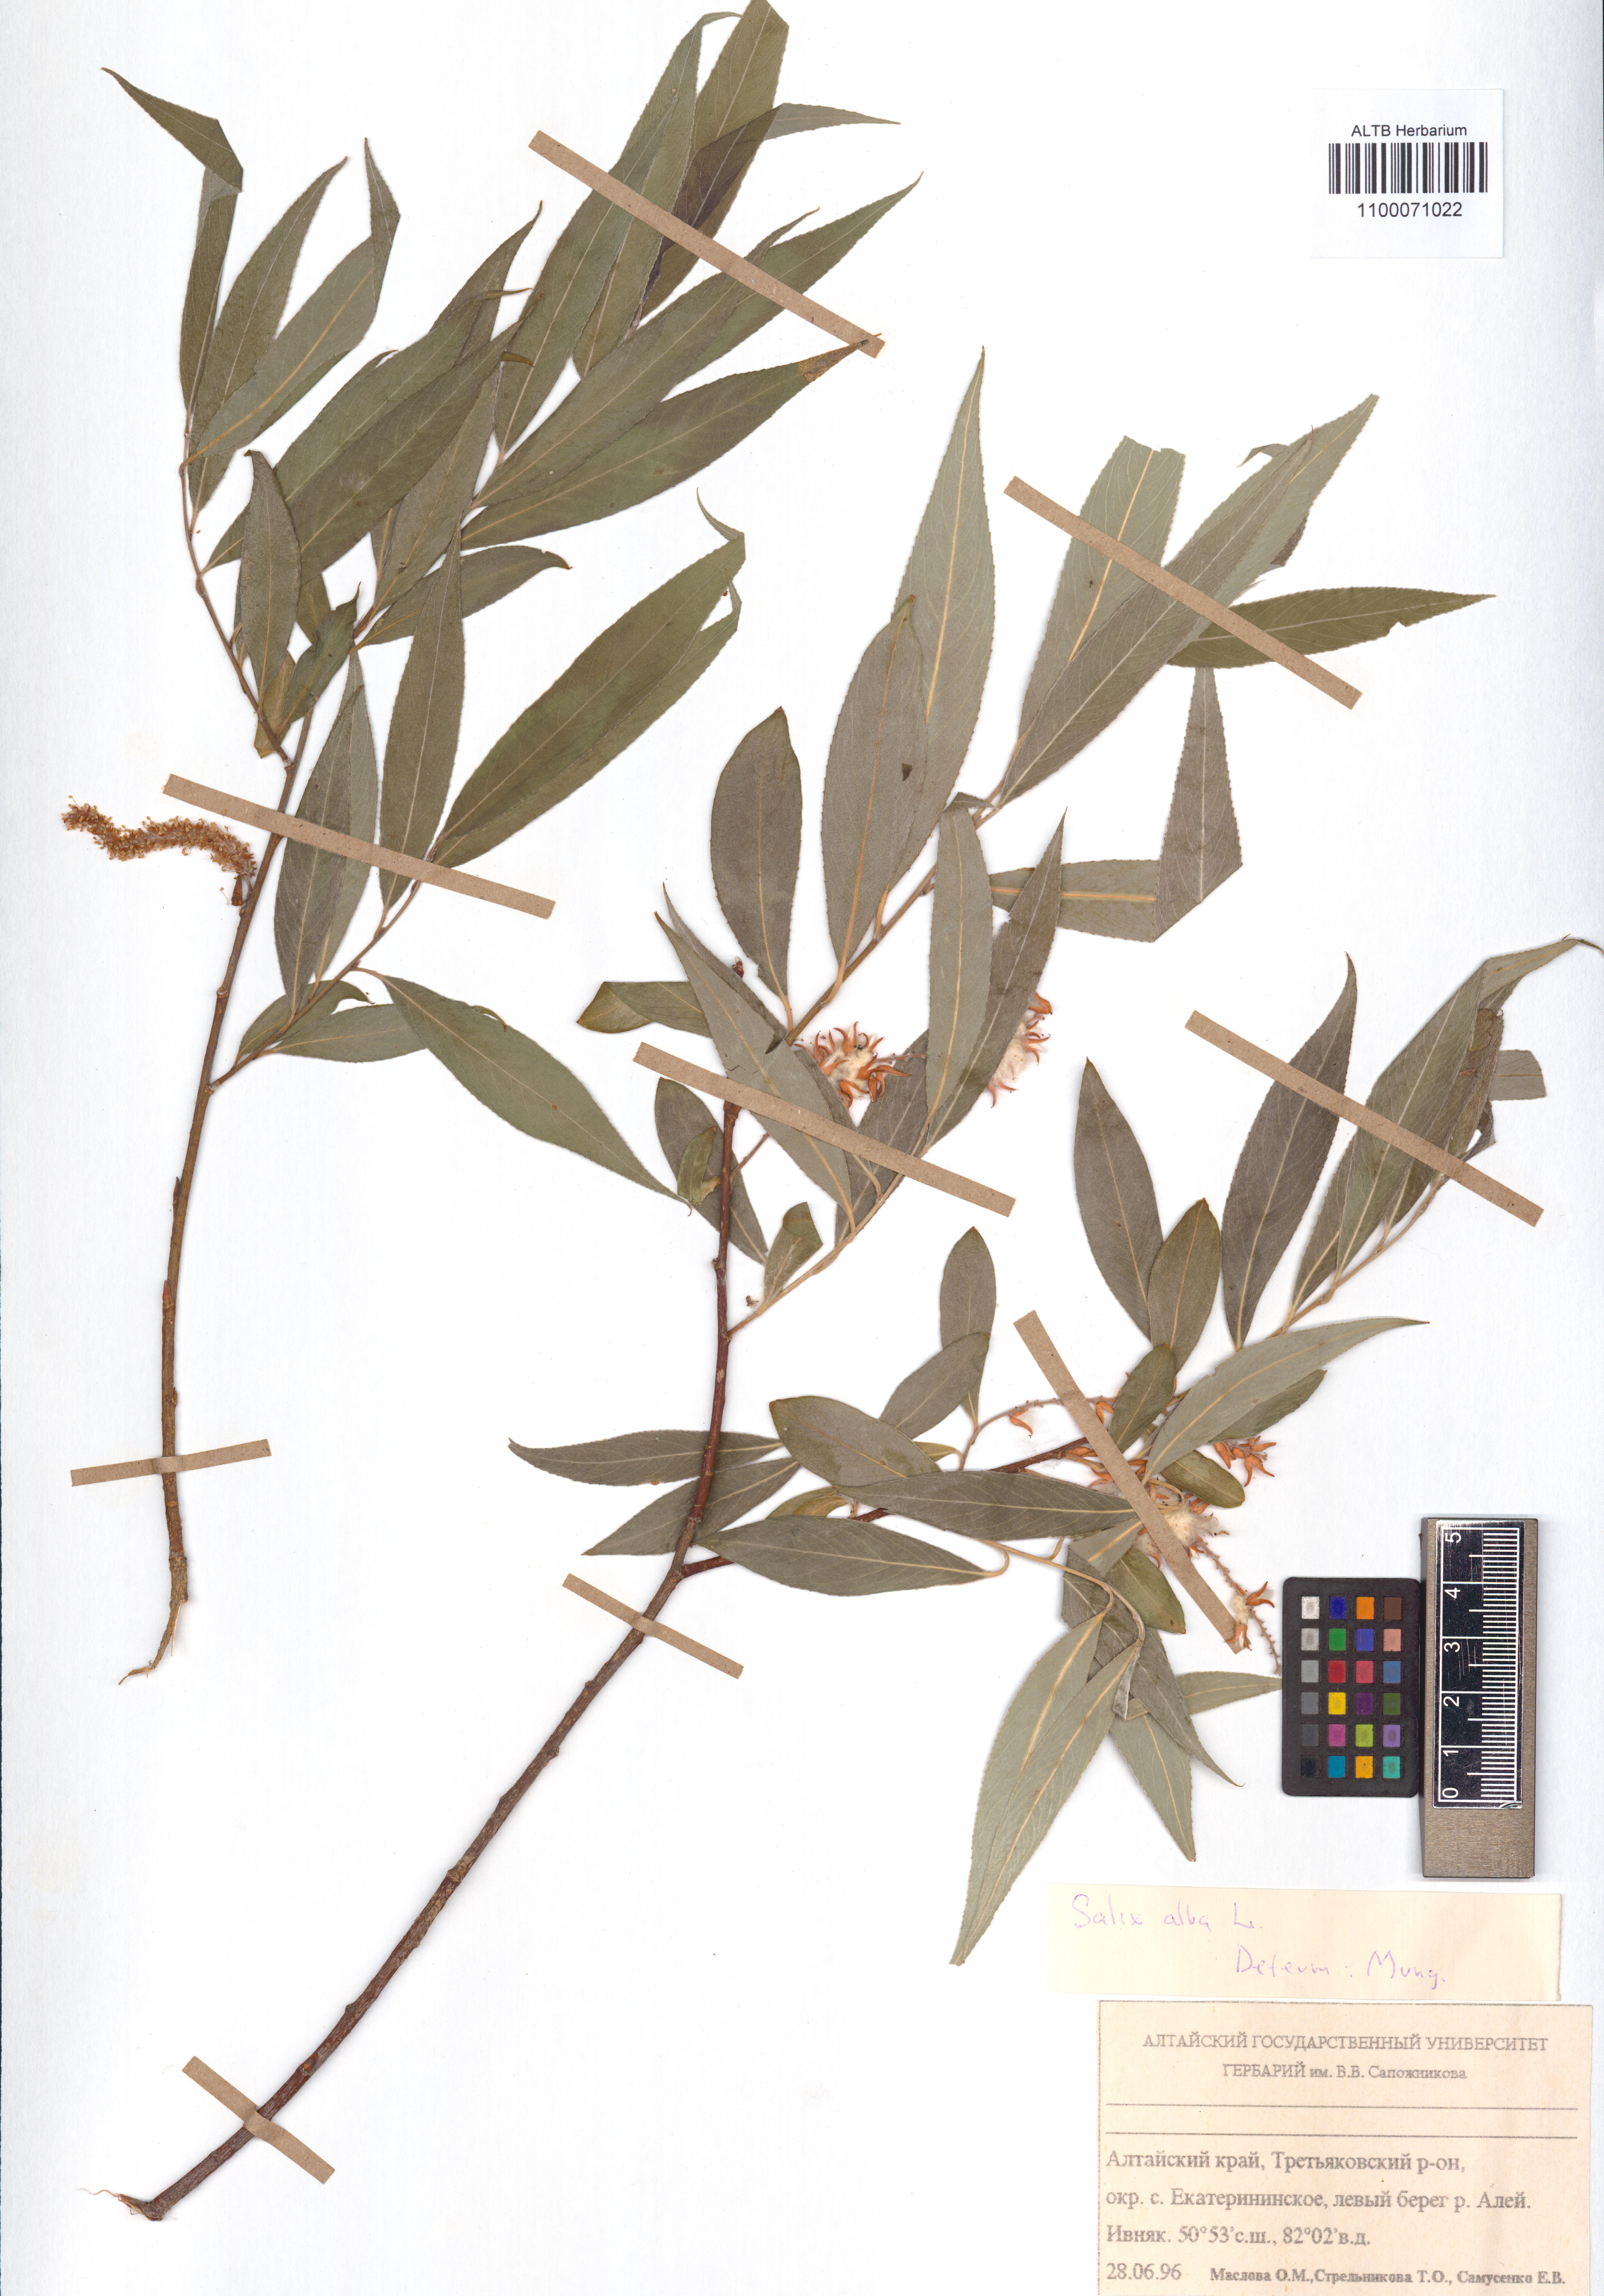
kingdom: Plantae
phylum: Tracheophyta
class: Magnoliopsida
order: Malpighiales
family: Salicaceae
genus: Salix
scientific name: Salix alba
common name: White willow
